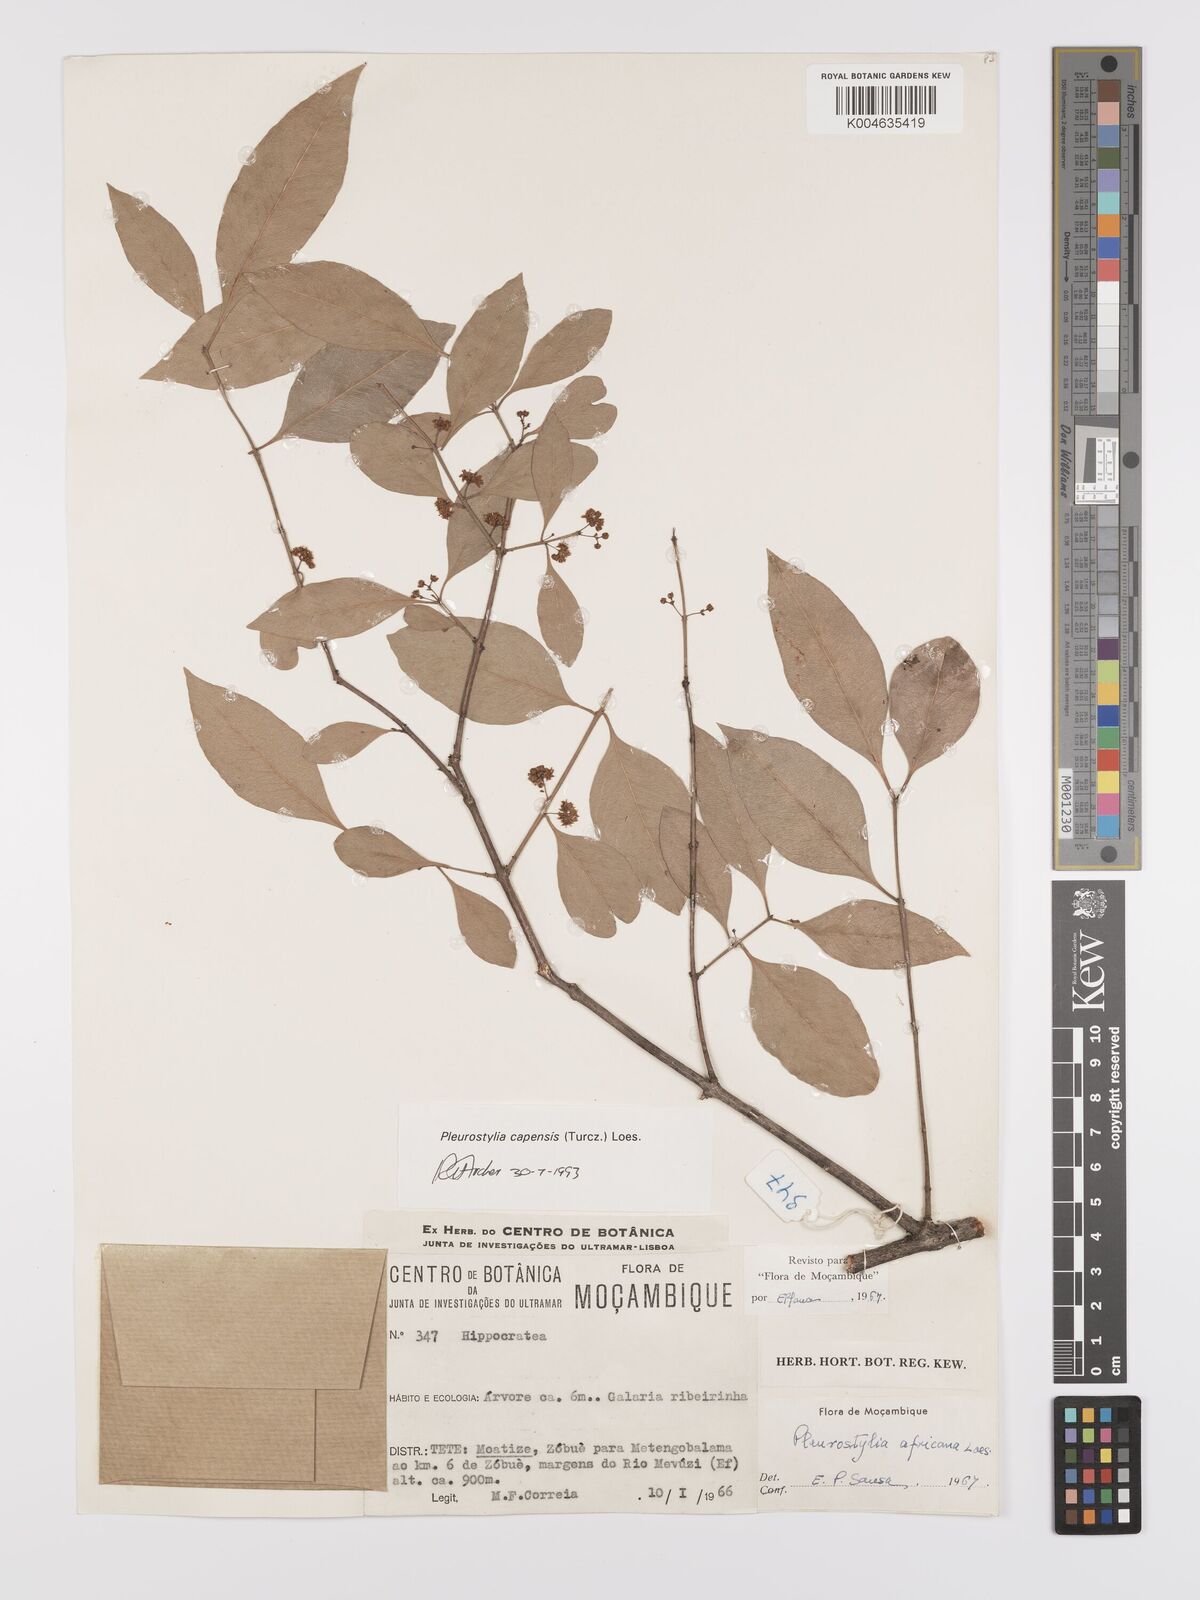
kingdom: Plantae
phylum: Tracheophyta
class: Magnoliopsida
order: Celastrales
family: Celastraceae
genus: Pleurostylia
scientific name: Pleurostylia africana
